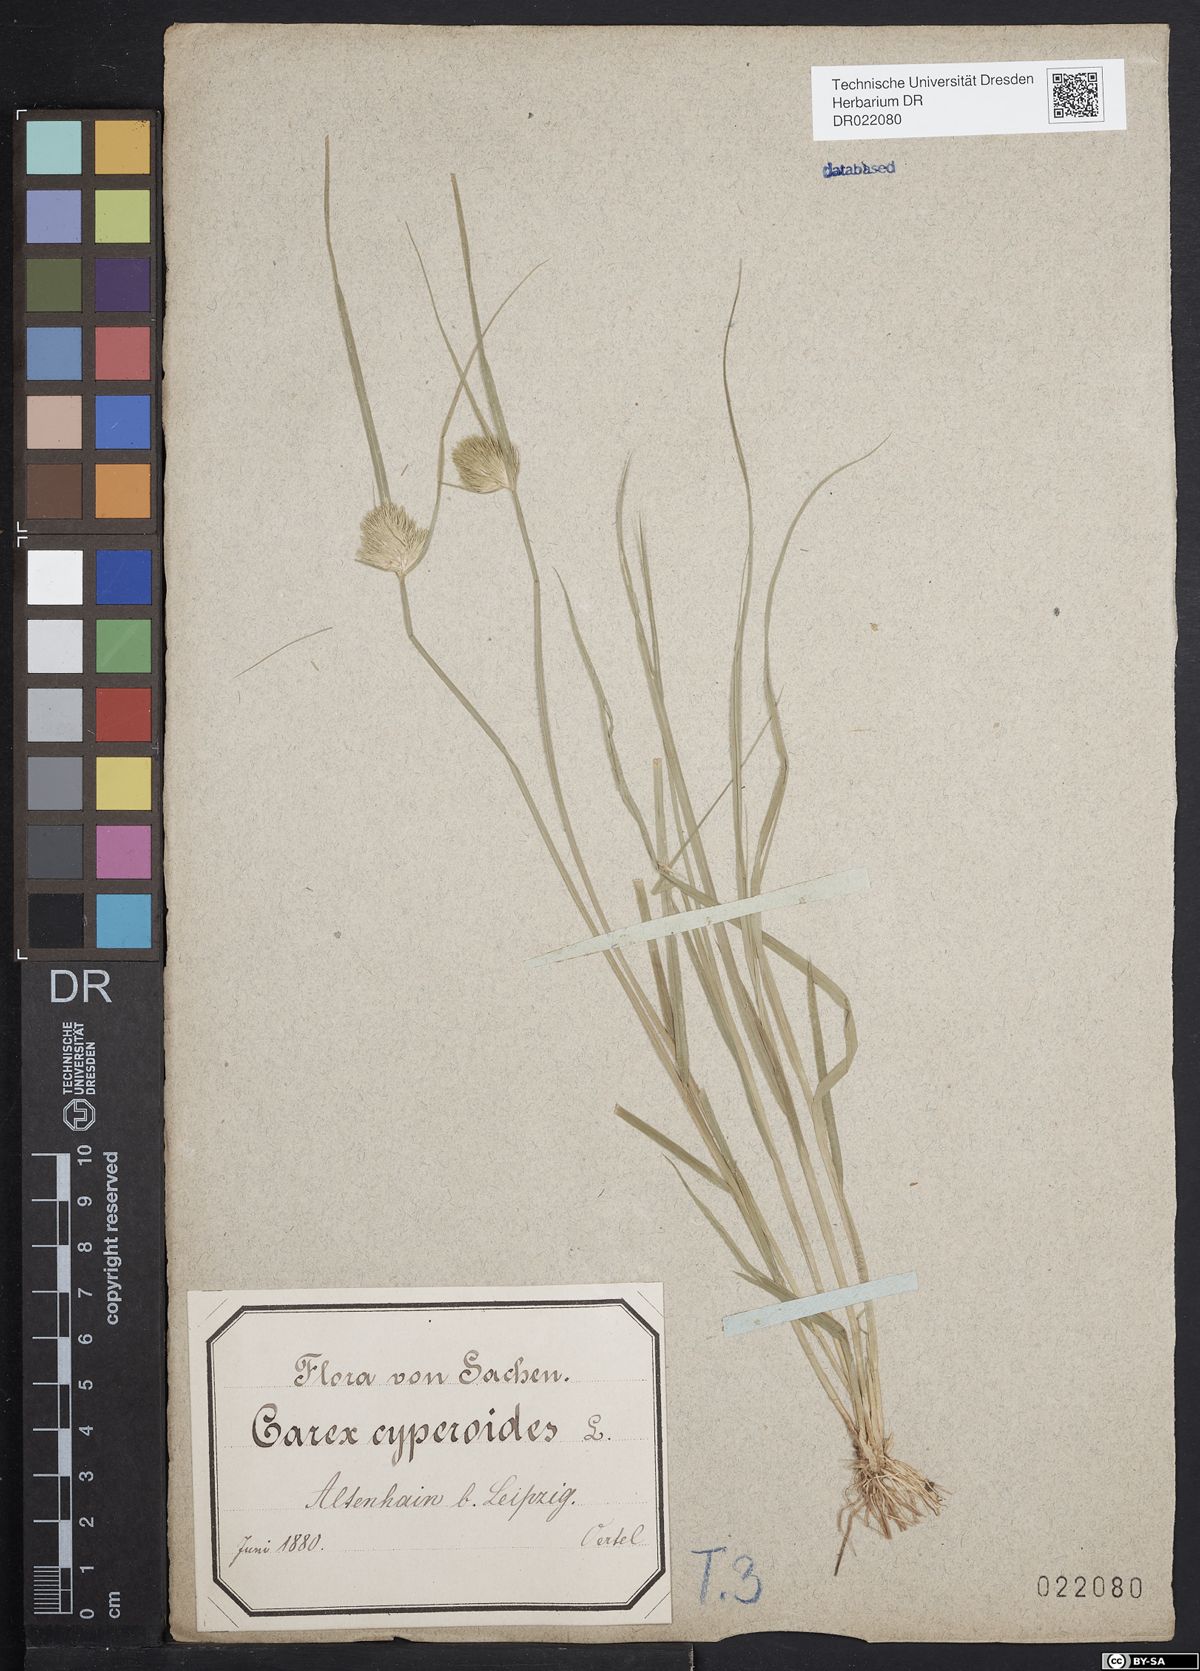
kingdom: Plantae
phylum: Tracheophyta
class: Liliopsida
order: Poales
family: Cyperaceae
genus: Carex
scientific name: Carex bohemica
